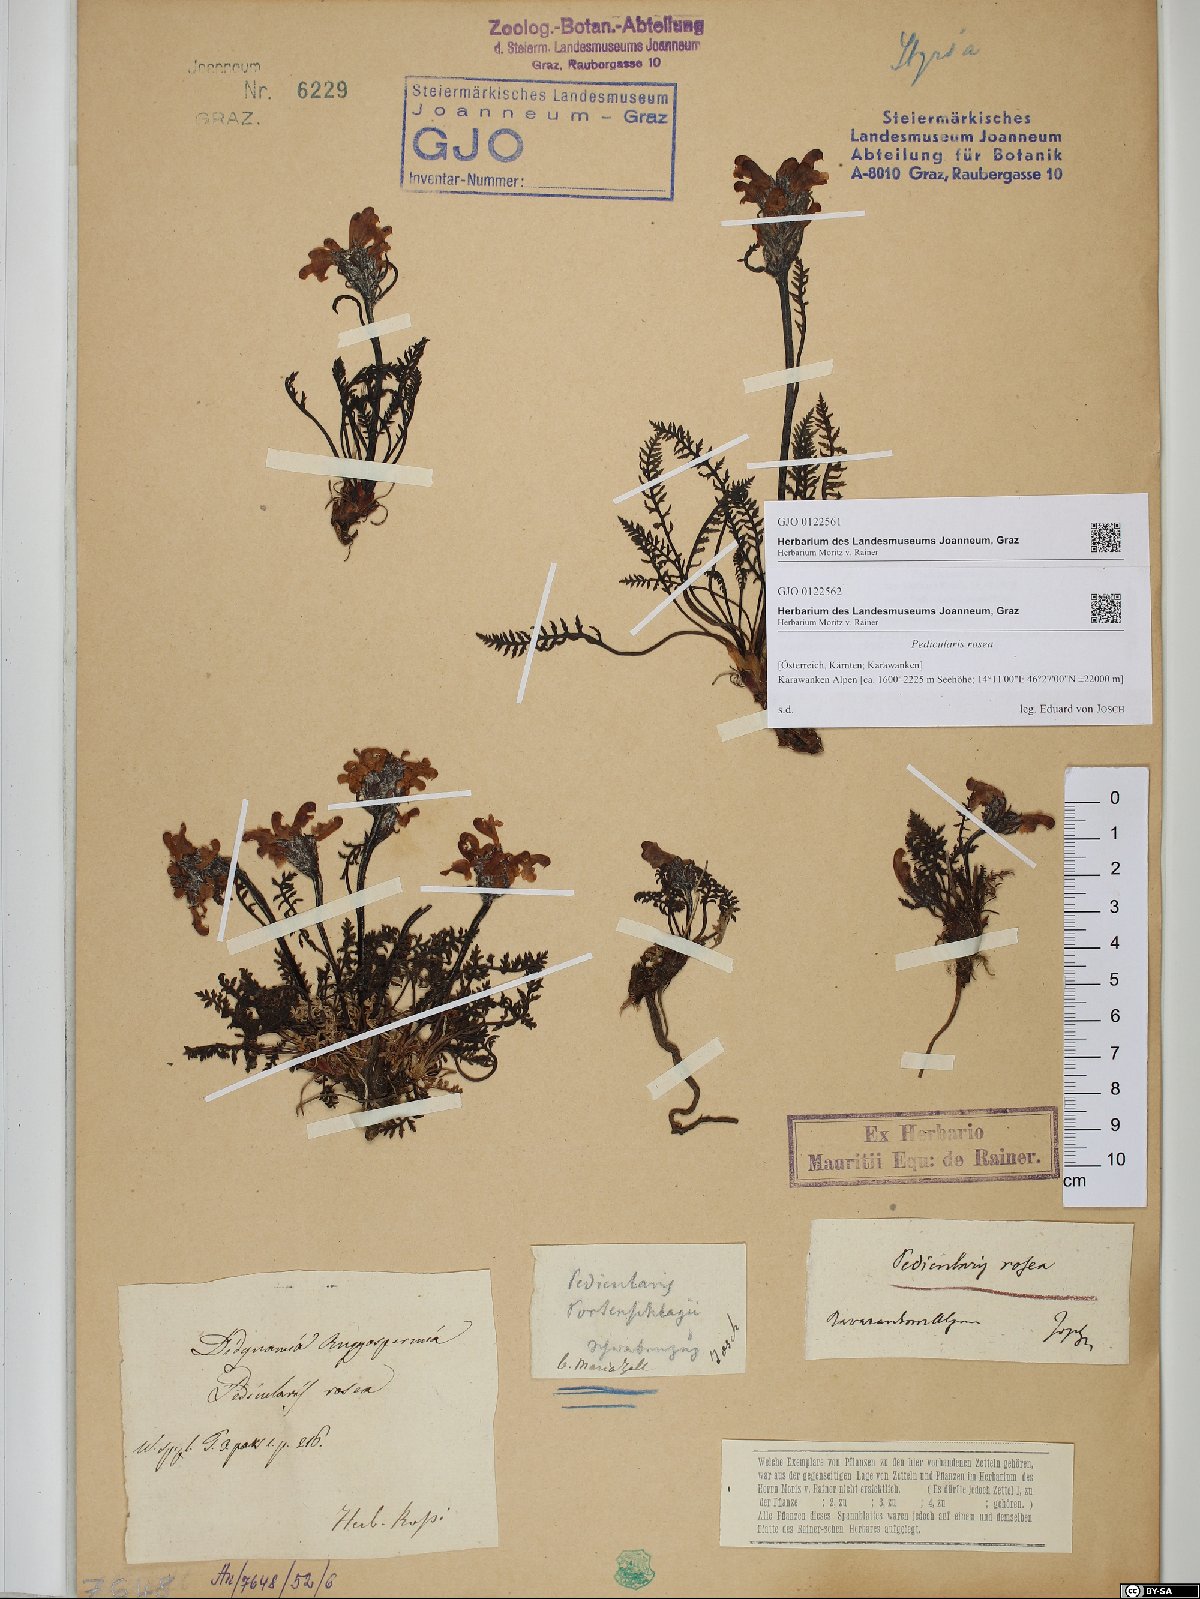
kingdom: Plantae
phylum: Tracheophyta
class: Magnoliopsida
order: Lamiales
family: Orobanchaceae
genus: Pedicularis
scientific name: Pedicularis rosea
